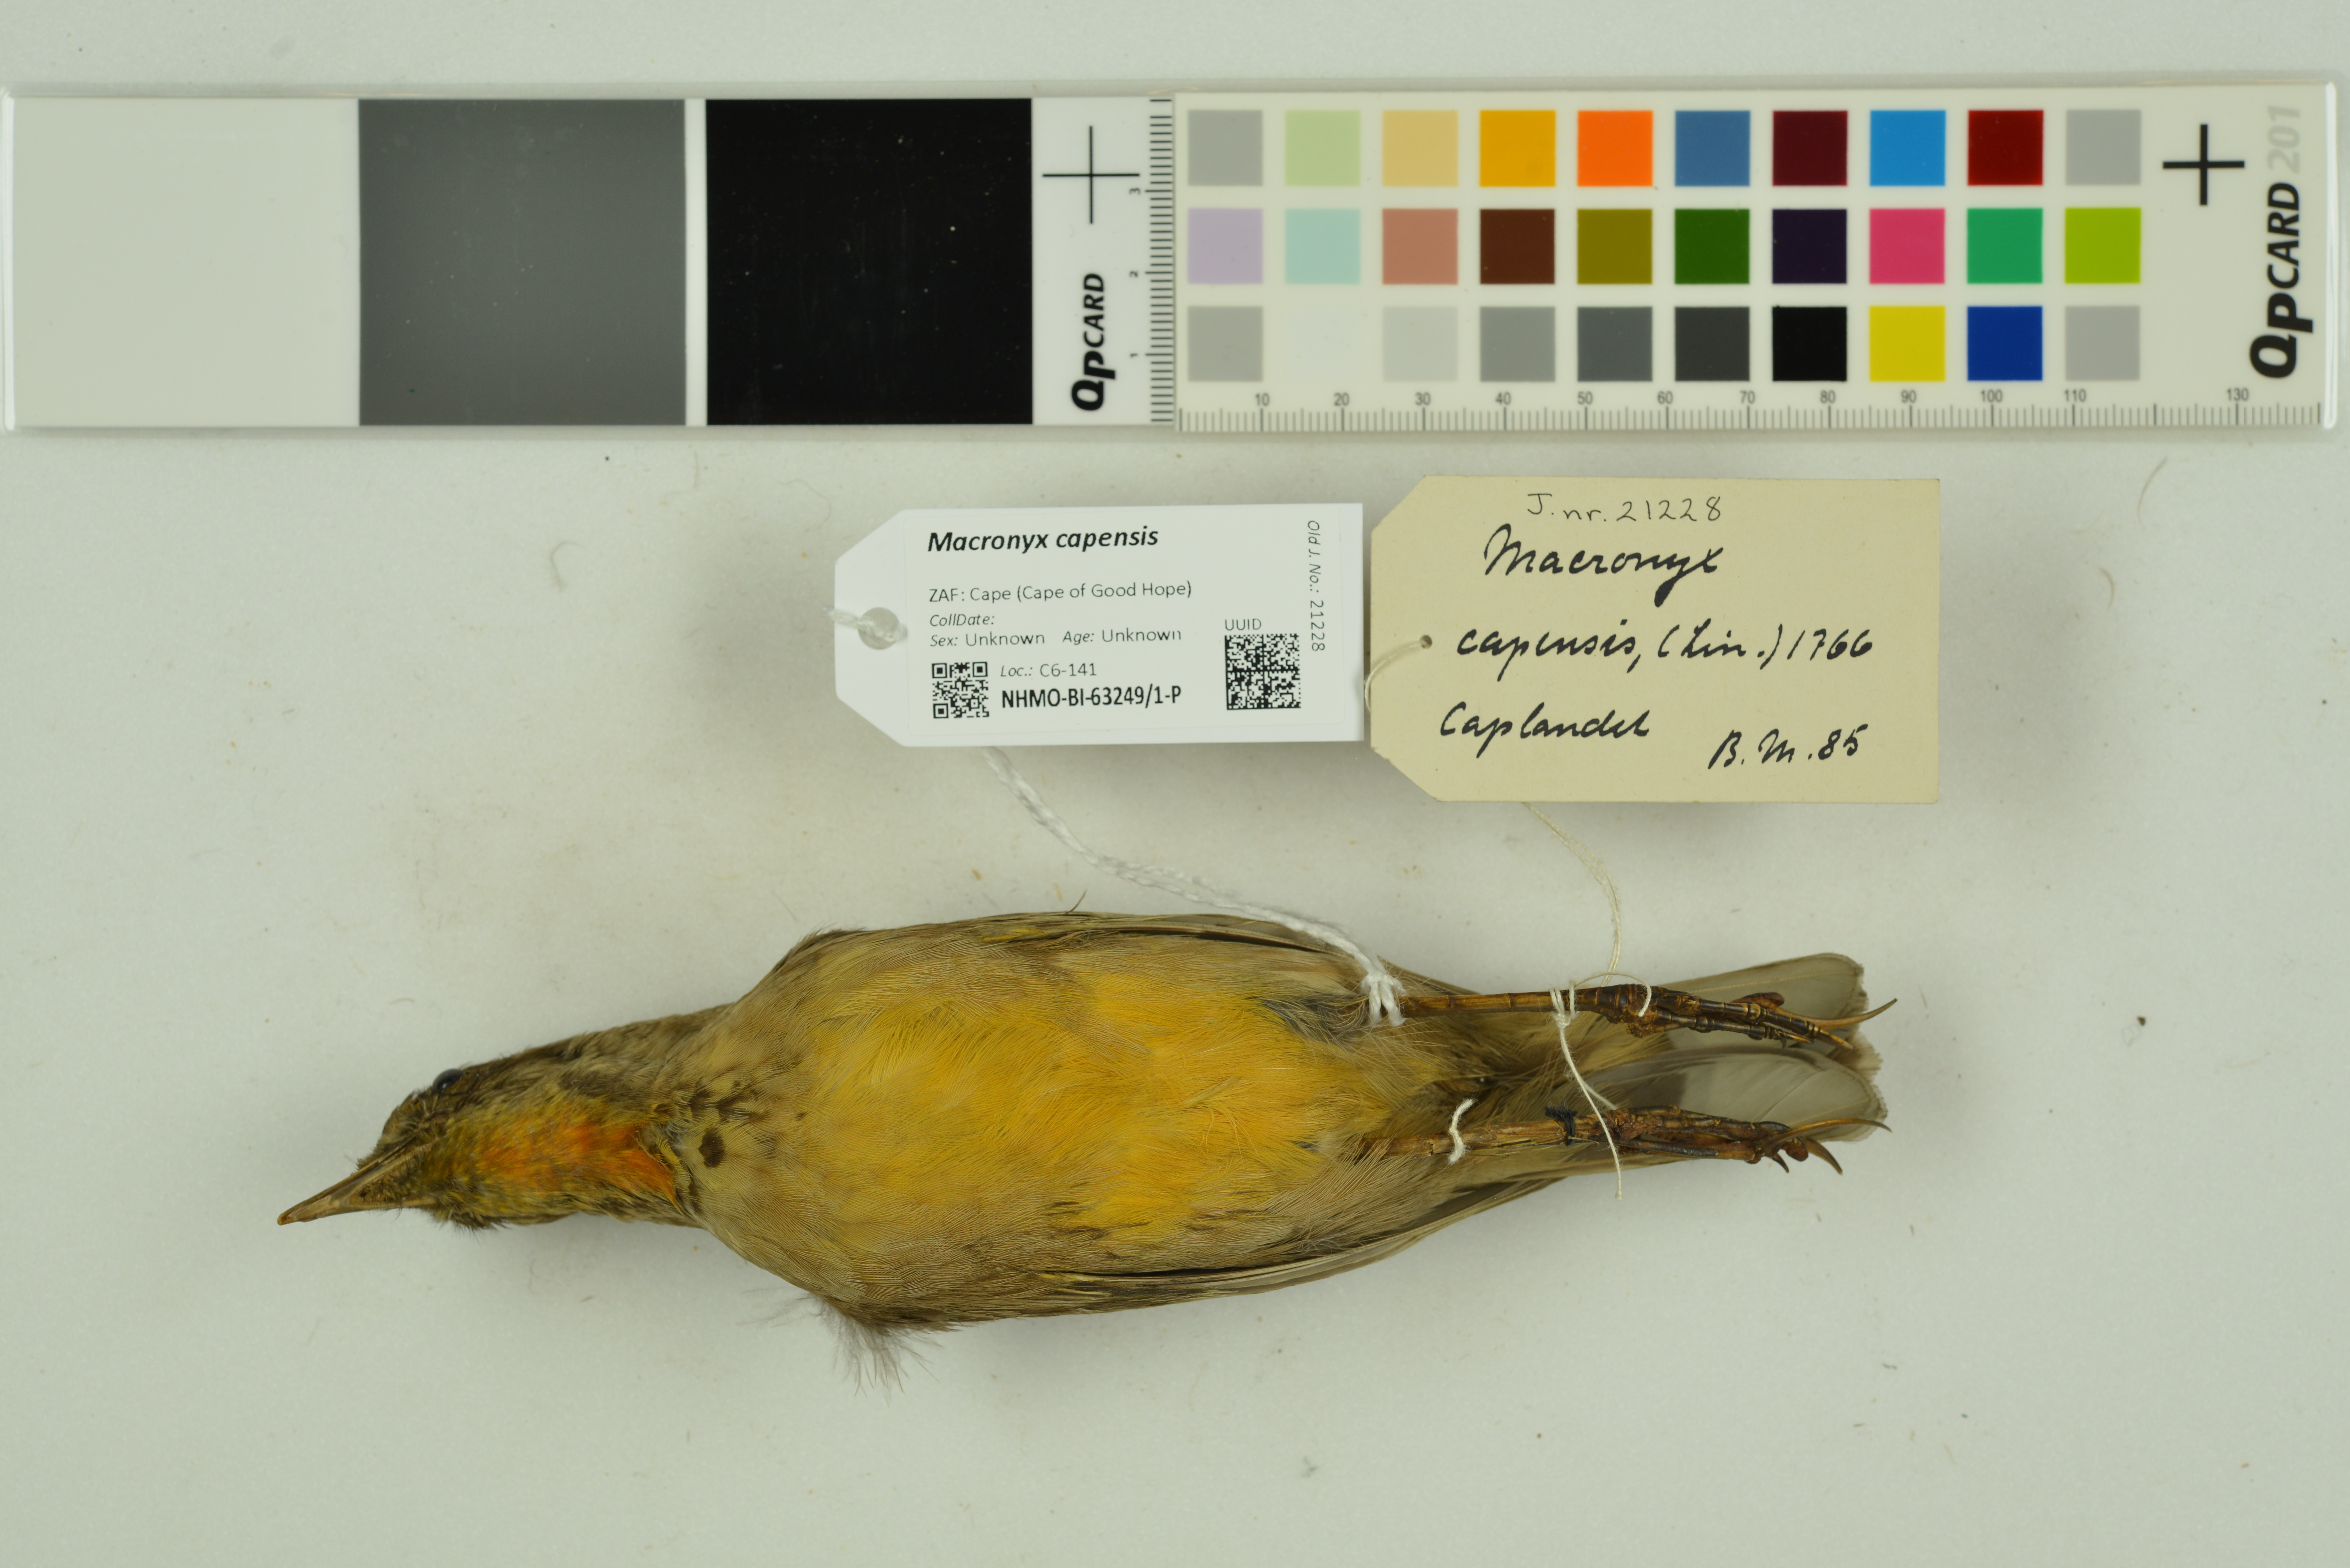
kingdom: Animalia
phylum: Chordata
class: Aves
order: Passeriformes
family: Motacillidae
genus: Macronyx
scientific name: Macronyx capensis
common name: Cape longclaw
